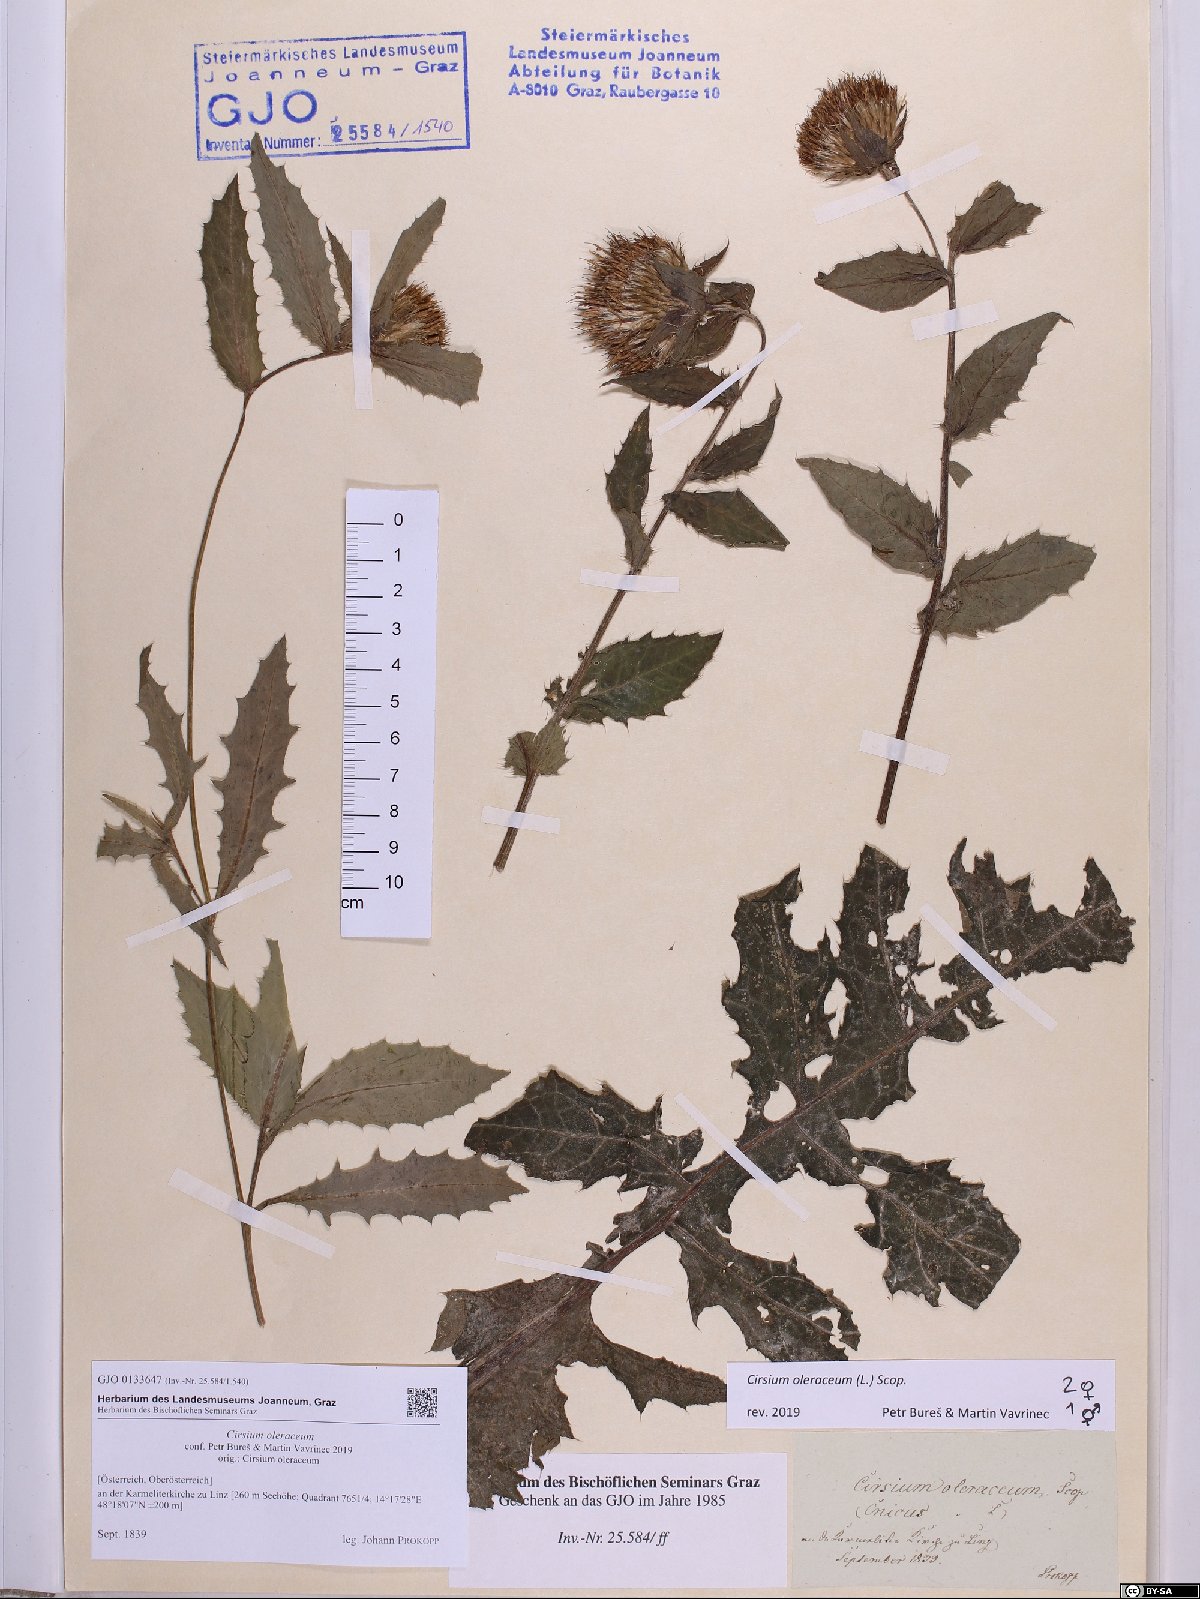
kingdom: Plantae
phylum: Tracheophyta
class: Magnoliopsida
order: Asterales
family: Asteraceae
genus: Cirsium
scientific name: Cirsium oleraceum
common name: Cabbage thistle
